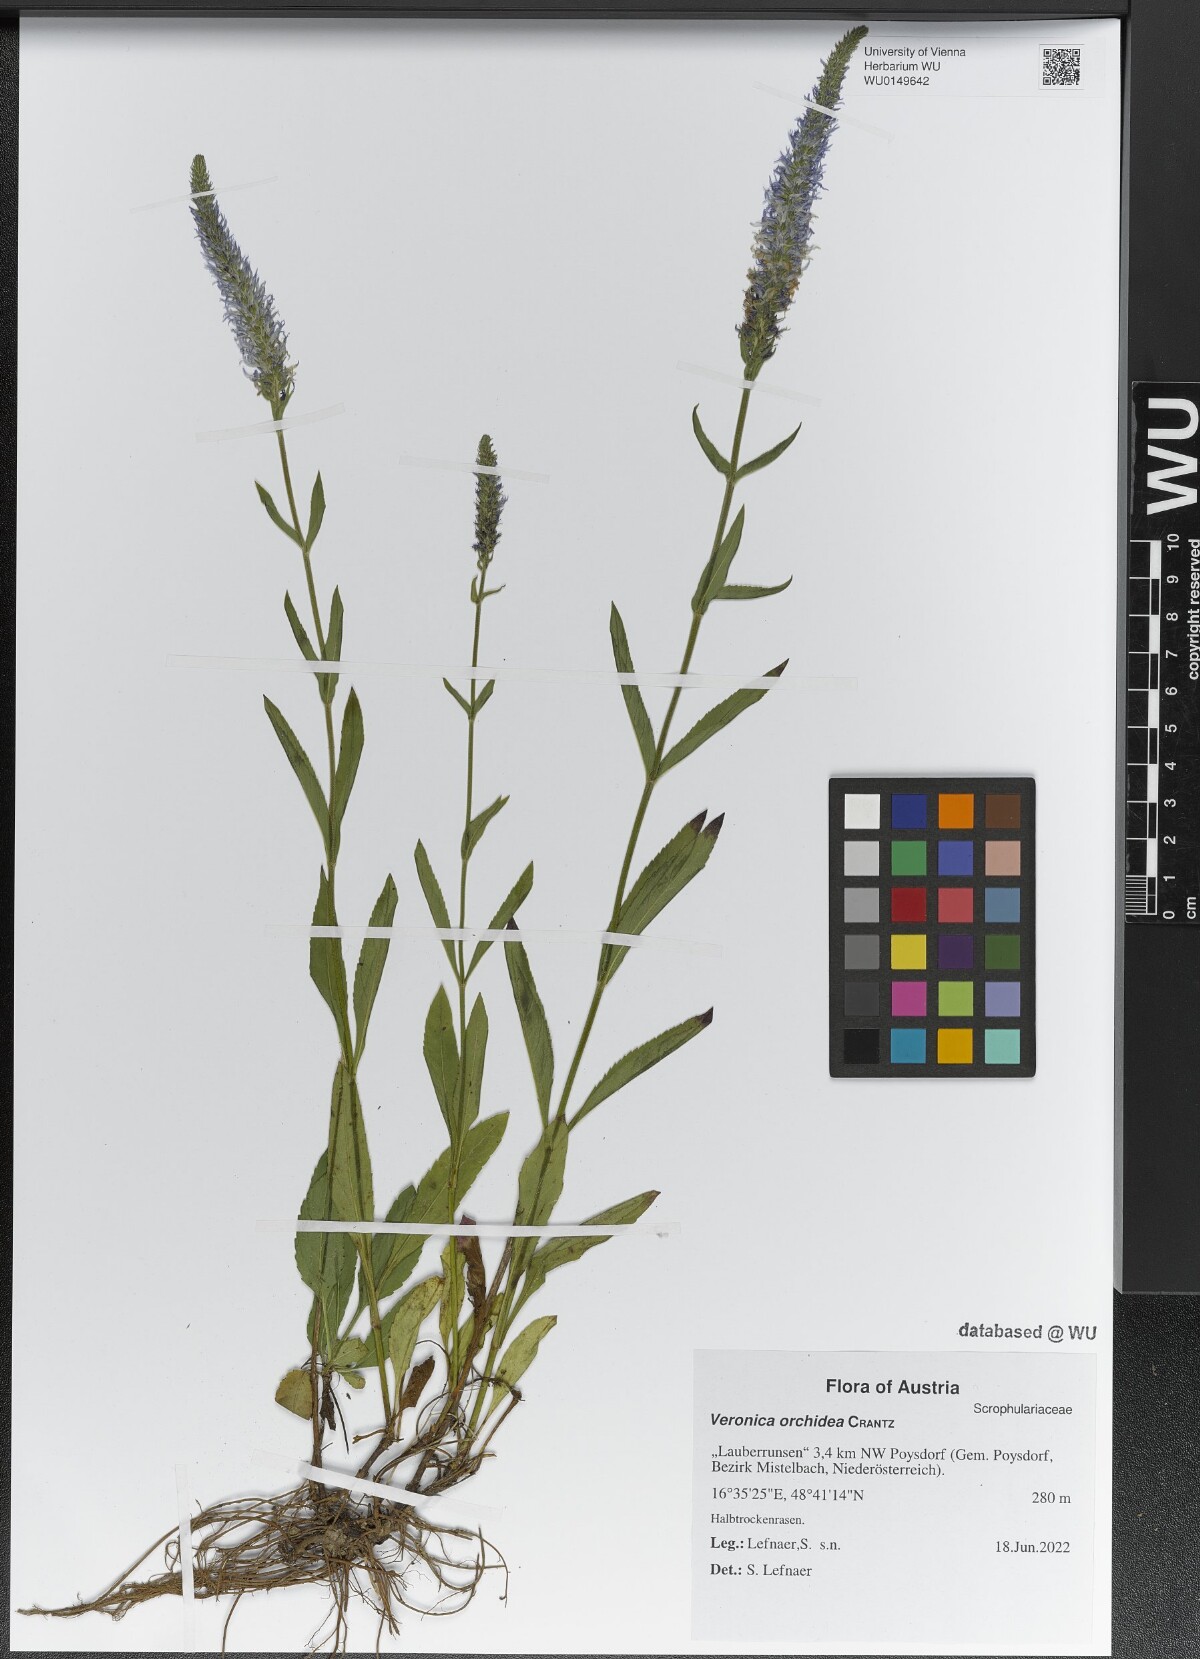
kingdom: Plantae
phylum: Tracheophyta
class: Magnoliopsida
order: Lamiales
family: Plantaginaceae
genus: Veronica
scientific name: Veronica orchidea
